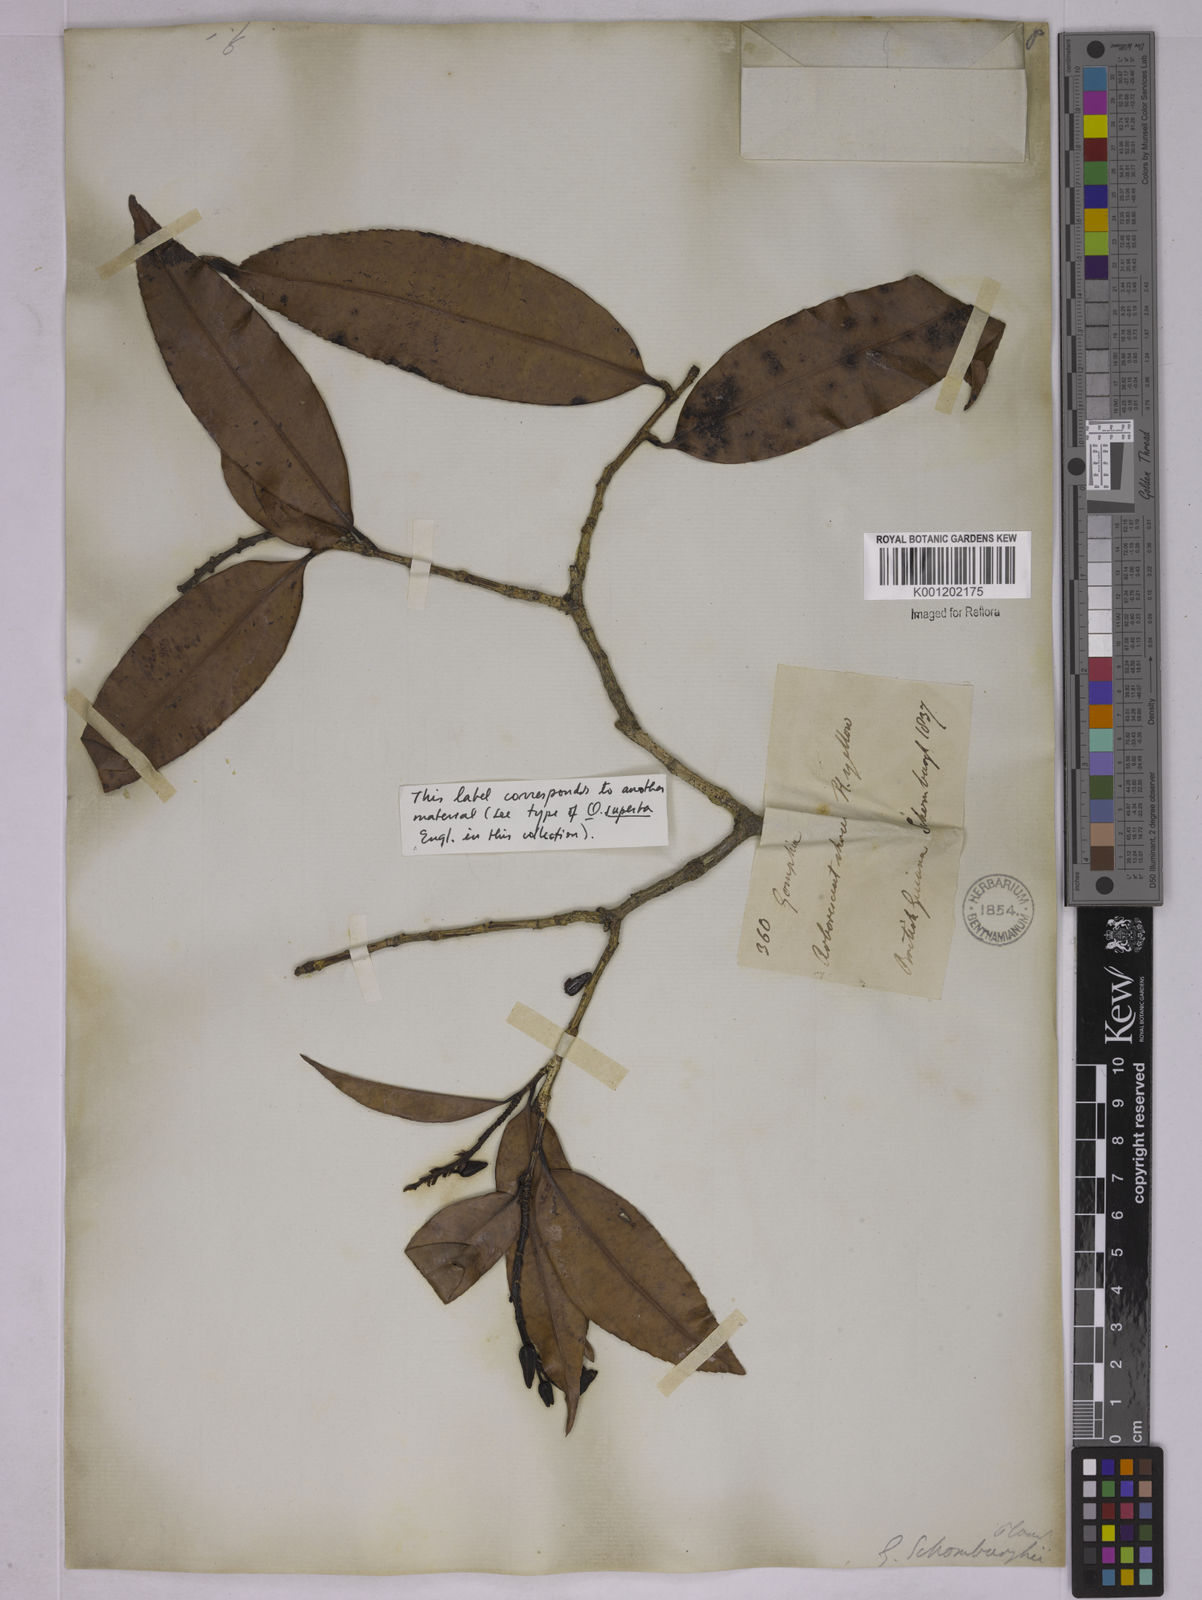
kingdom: Plantae
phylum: Tracheophyta
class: Magnoliopsida
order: Malpighiales
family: Ochnaceae
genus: Ouratea
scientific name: Ouratea
